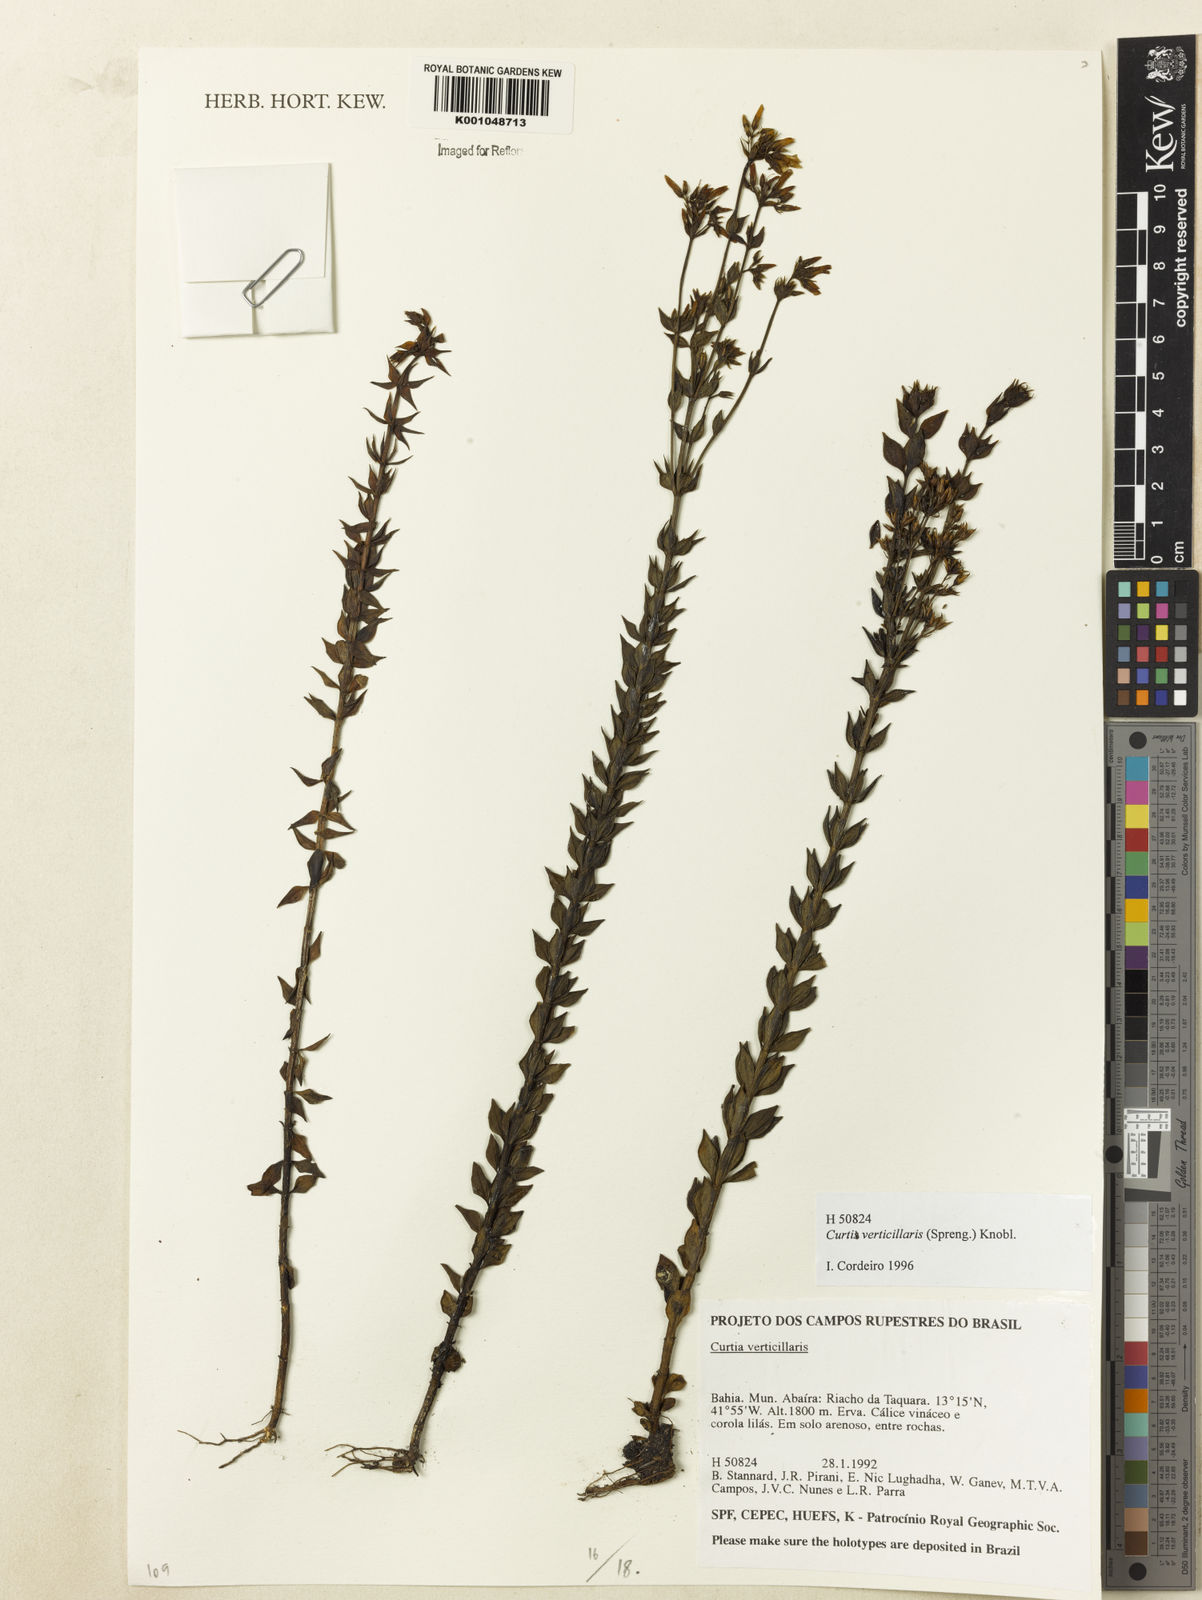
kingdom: Plantae
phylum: Tracheophyta
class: Magnoliopsida
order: Gentianales
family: Gentianaceae
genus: Curtia
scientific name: Curtia verticillaris
